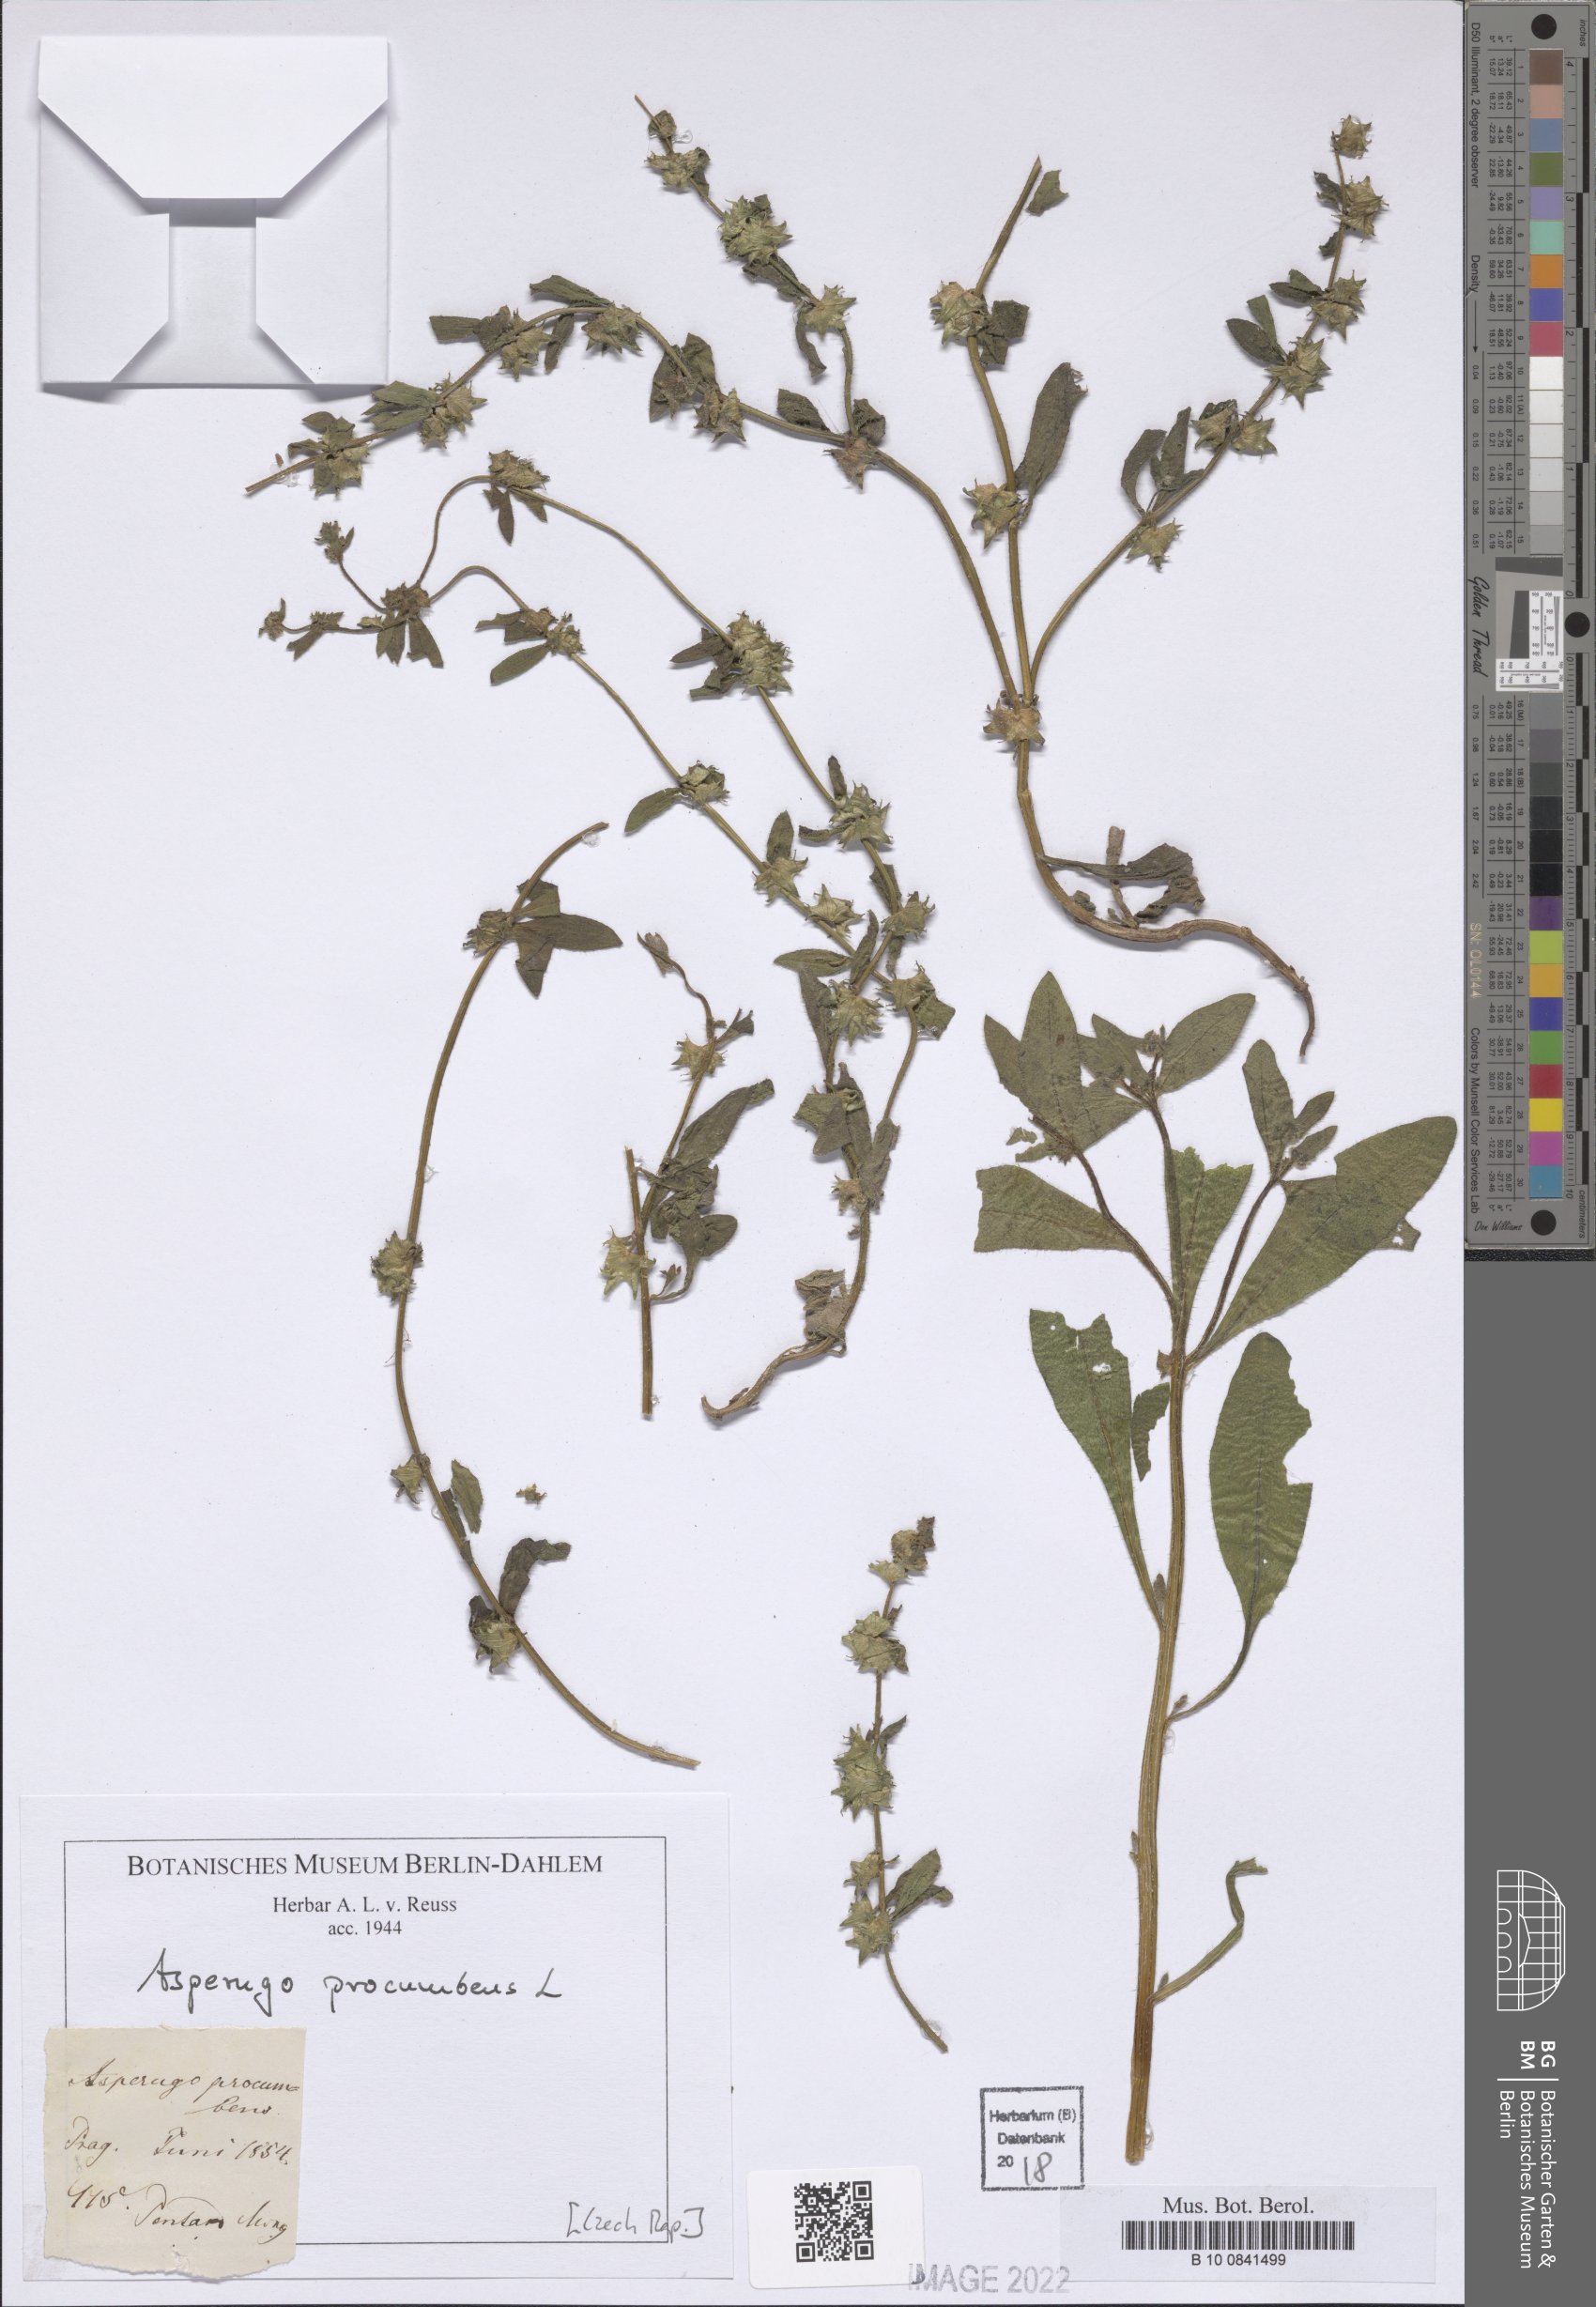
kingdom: Plantae
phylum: Tracheophyta
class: Magnoliopsida
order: Boraginales
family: Boraginaceae
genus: Asperugo
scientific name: Asperugo procumbens
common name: Madwort
